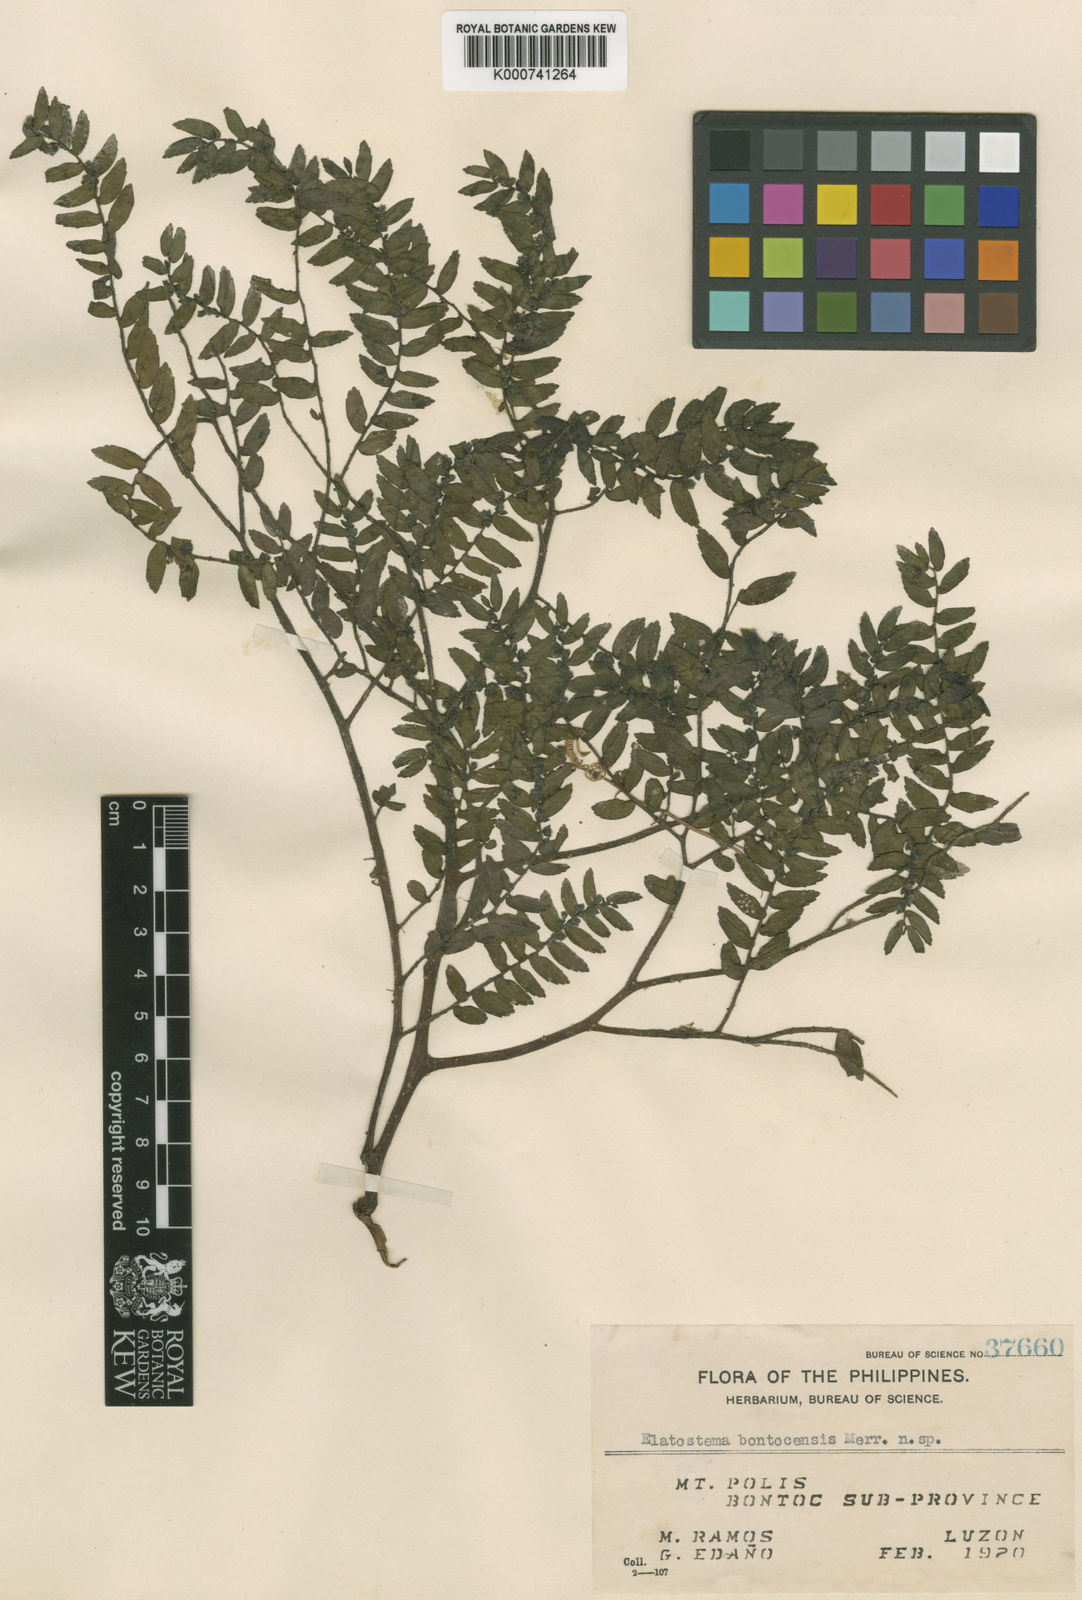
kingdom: Plantae
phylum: Tracheophyta
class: Magnoliopsida
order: Rosales
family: Urticaceae
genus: Elatostema
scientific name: Elatostema bontocense
